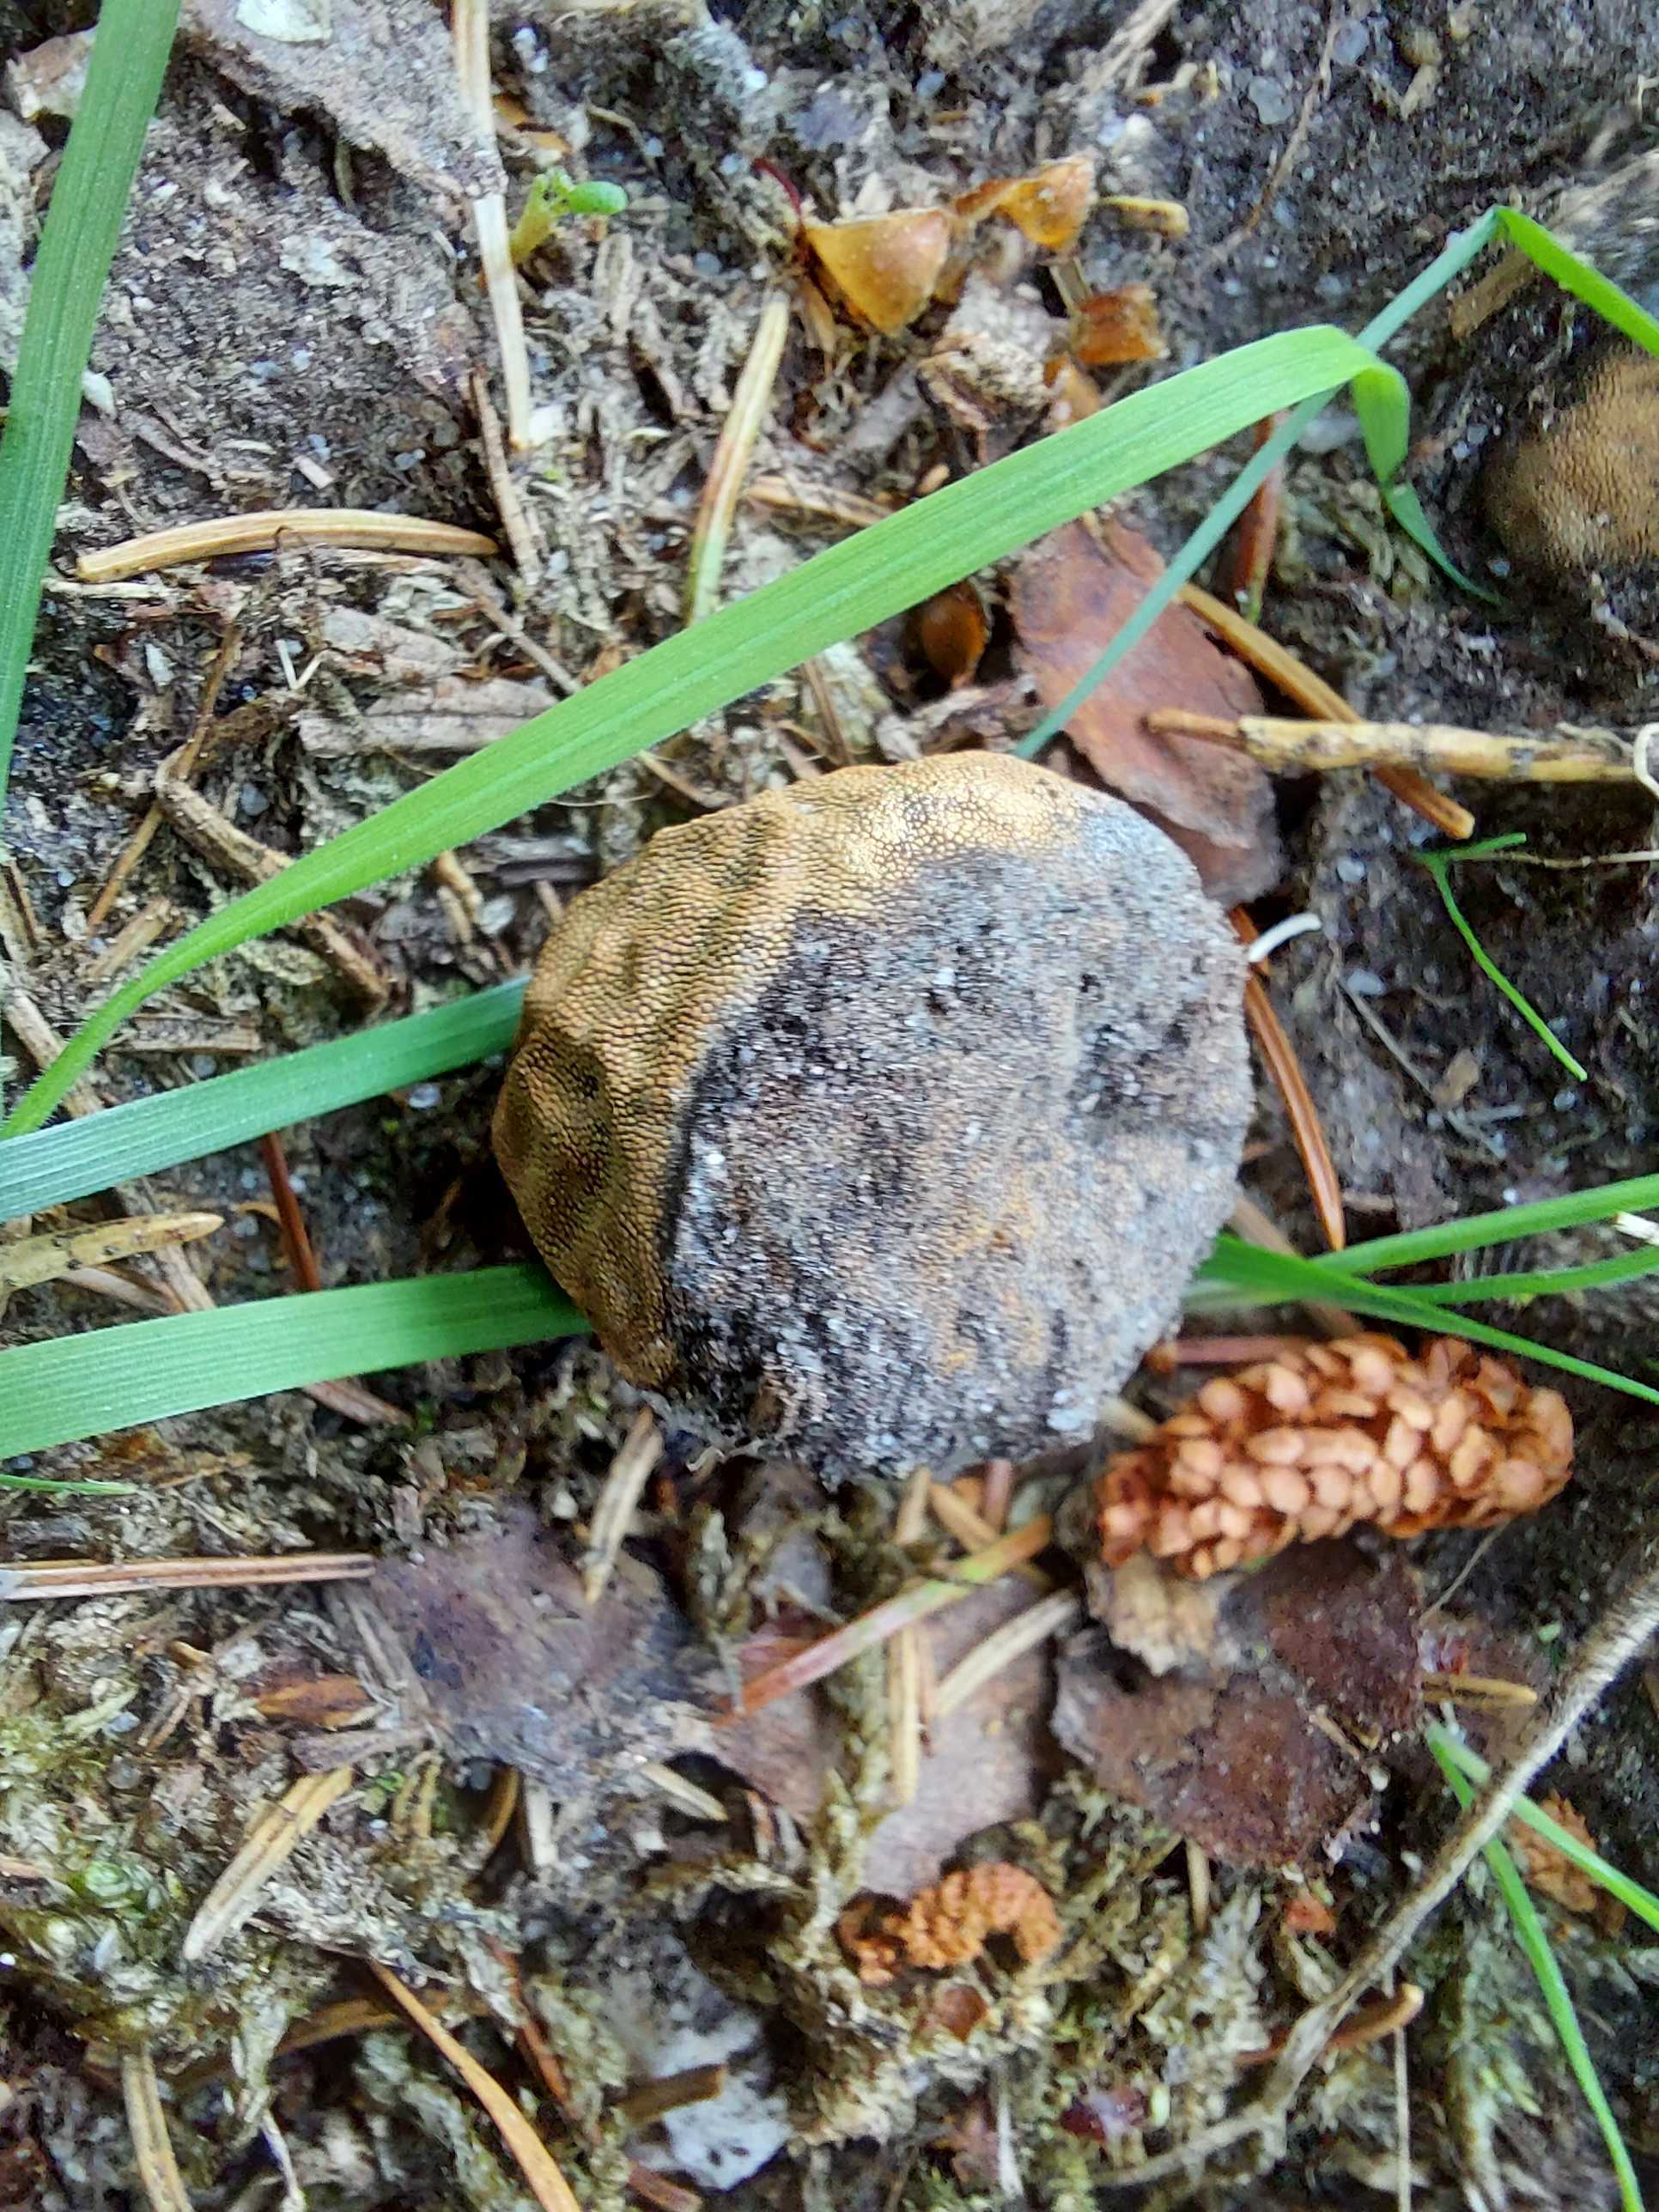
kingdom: Fungi
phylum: Ascomycota
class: Eurotiomycetes
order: Eurotiales
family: Elaphomycetaceae
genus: Elaphomyces
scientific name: Elaphomyces
